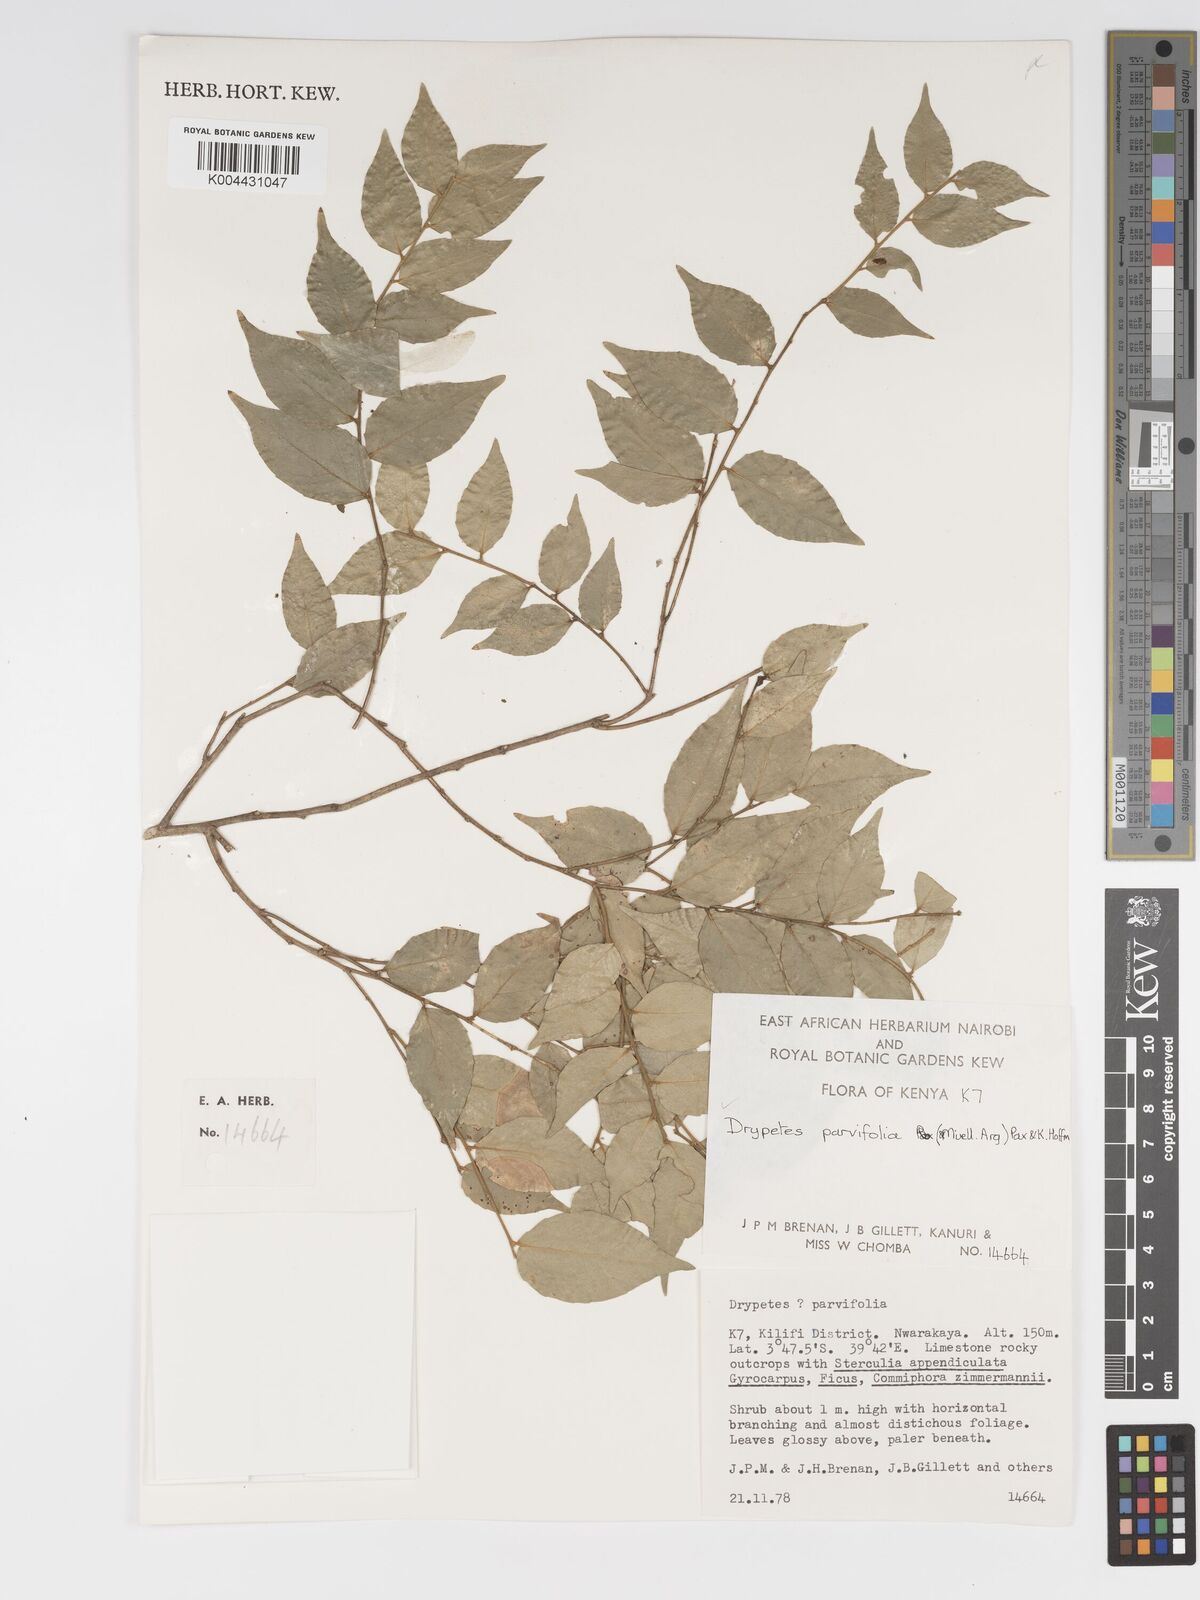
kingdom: Plantae
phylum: Tracheophyta
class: Magnoliopsida
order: Malpighiales
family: Putranjivaceae
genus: Drypetes
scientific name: Drypetes parvifolia
